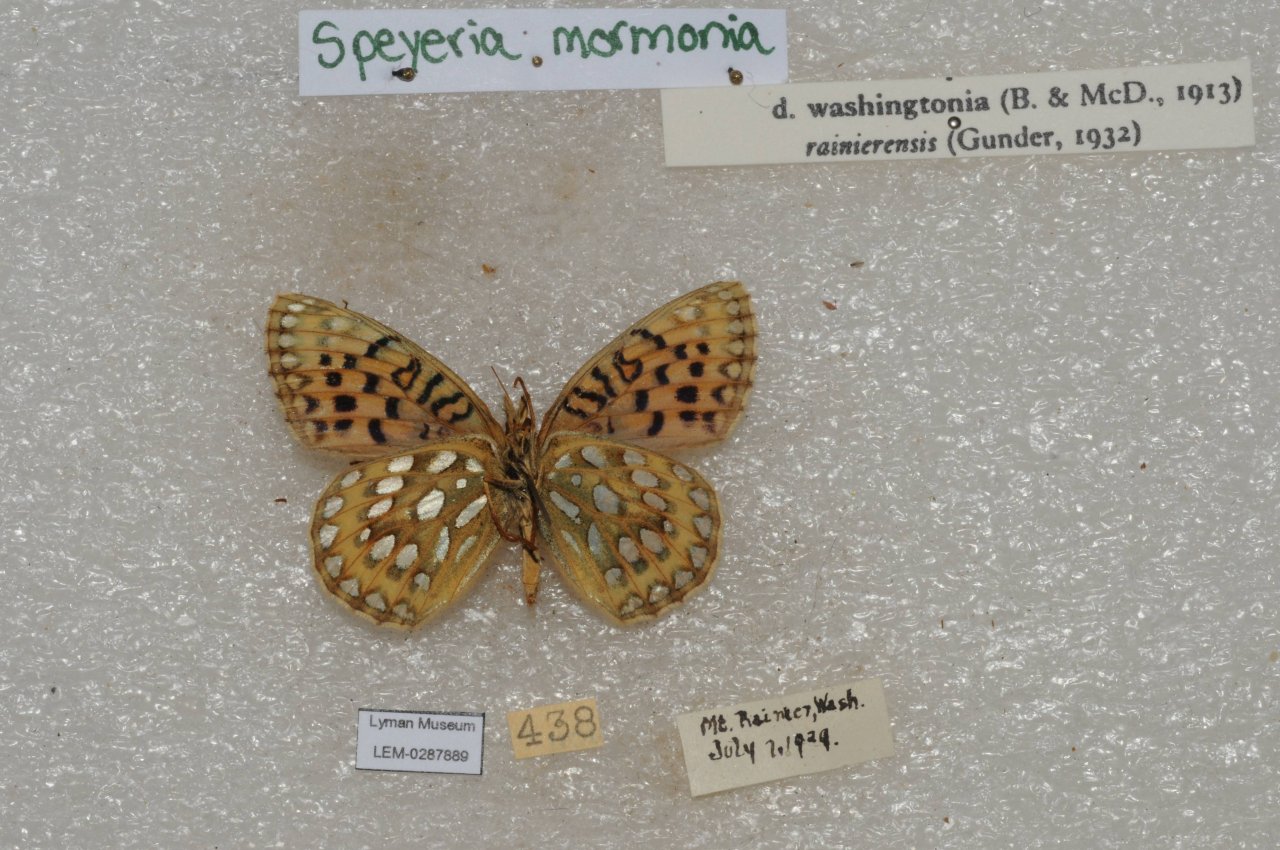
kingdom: Animalia
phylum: Arthropoda
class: Insecta
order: Lepidoptera
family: Nymphalidae
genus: Speyeria
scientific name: Speyeria mormonia
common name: Mormon Fritillary
